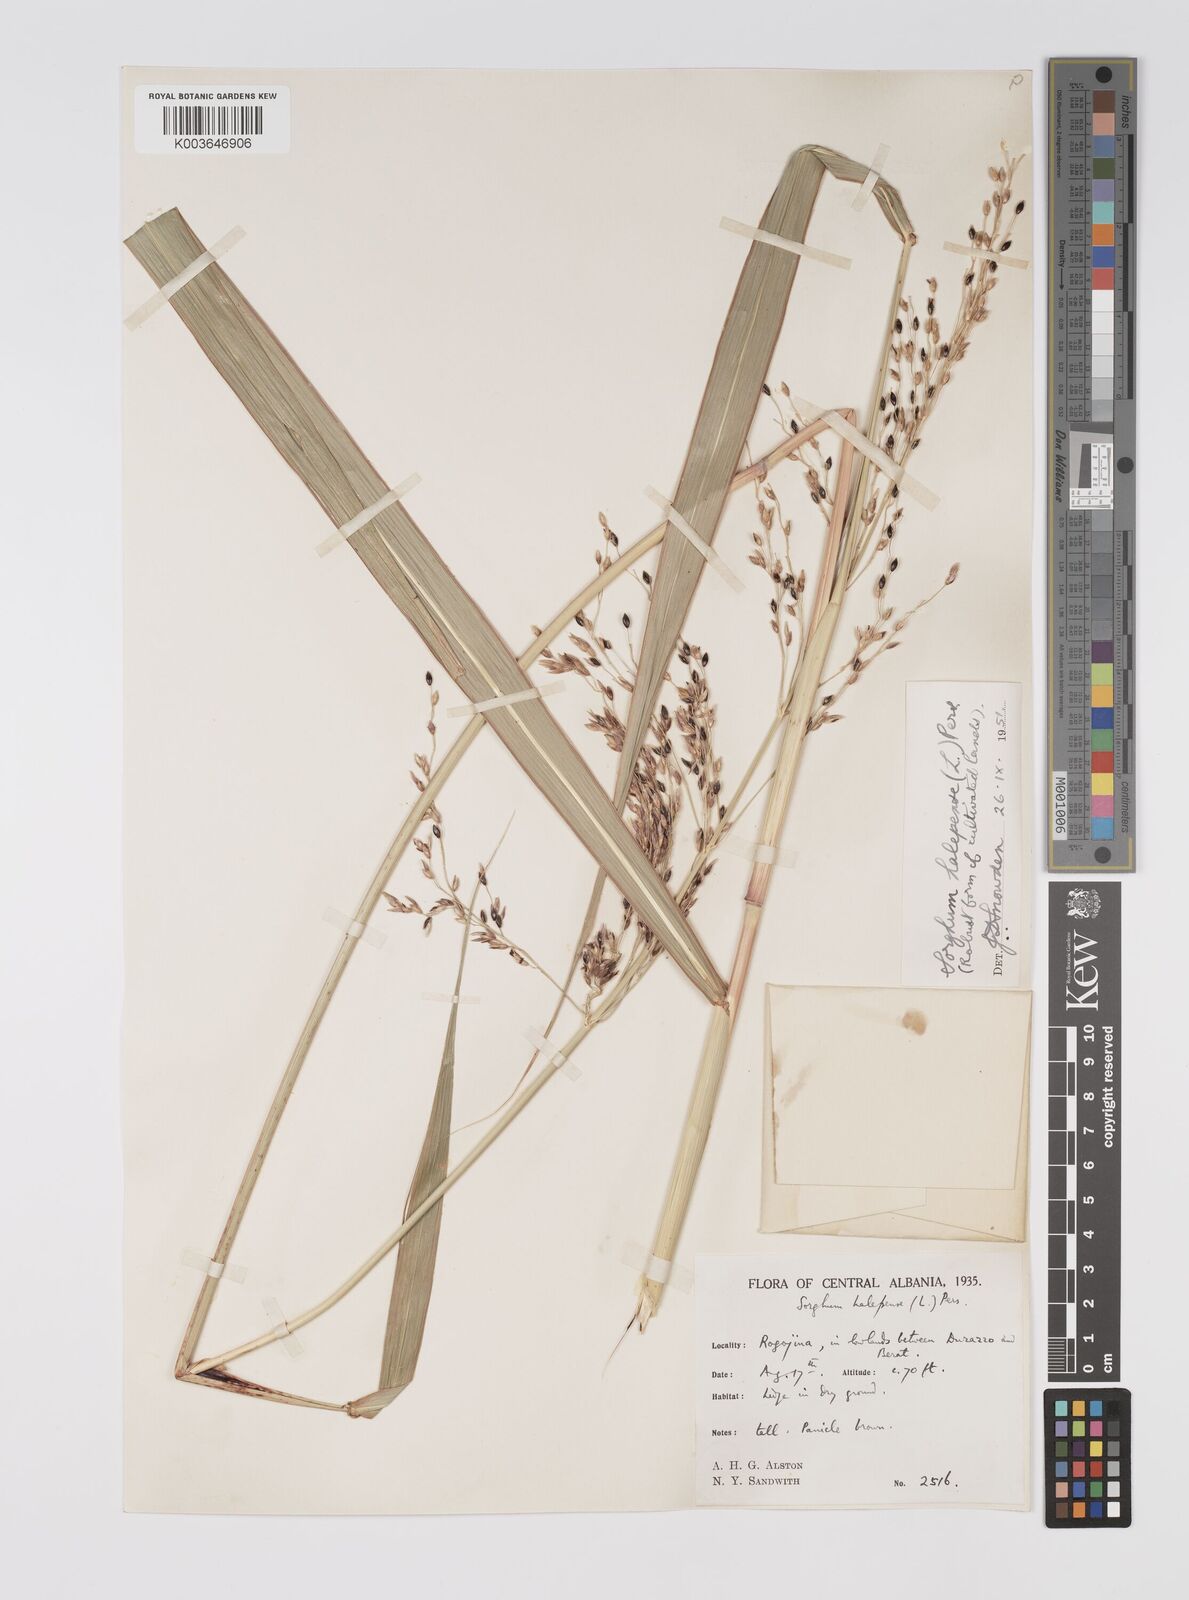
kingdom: Plantae
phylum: Tracheophyta
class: Liliopsida
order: Poales
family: Poaceae
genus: Sorghum
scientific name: Sorghum halepense
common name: Johnson-grass
